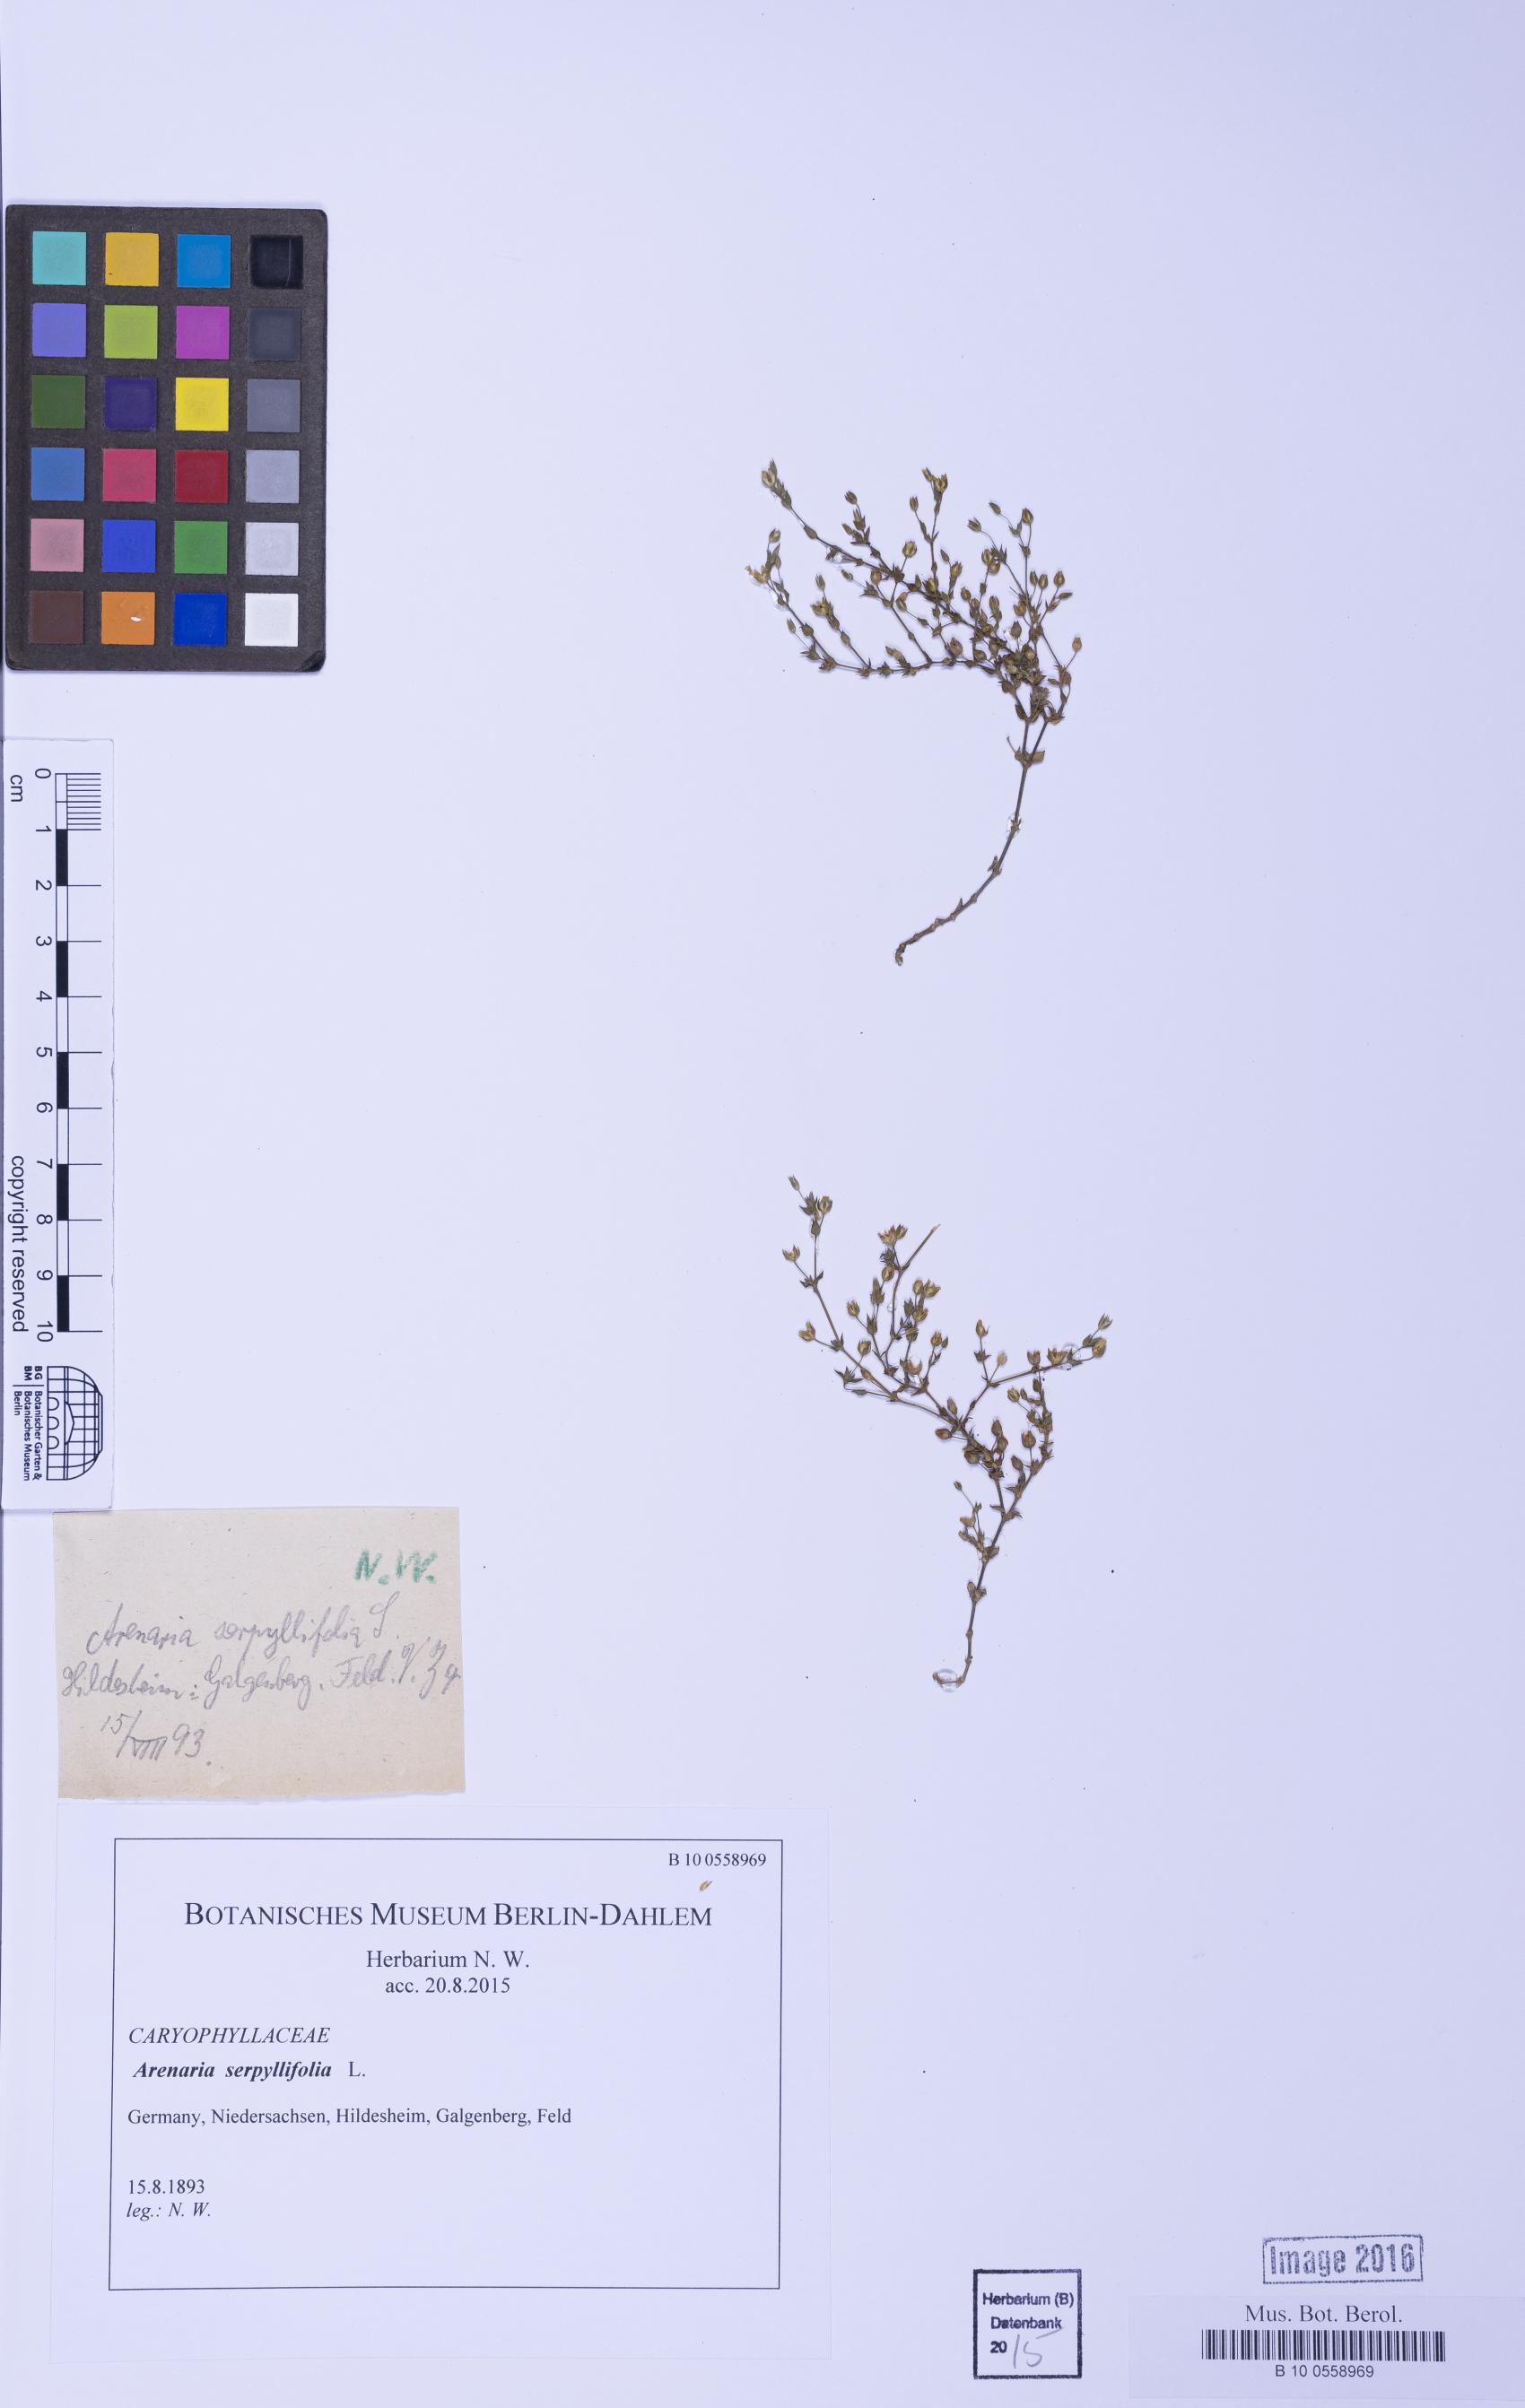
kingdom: Plantae
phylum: Tracheophyta
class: Magnoliopsida
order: Caryophyllales
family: Caryophyllaceae
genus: Arenaria
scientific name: Arenaria serpyllifolia
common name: Thyme-leaved sandwort
